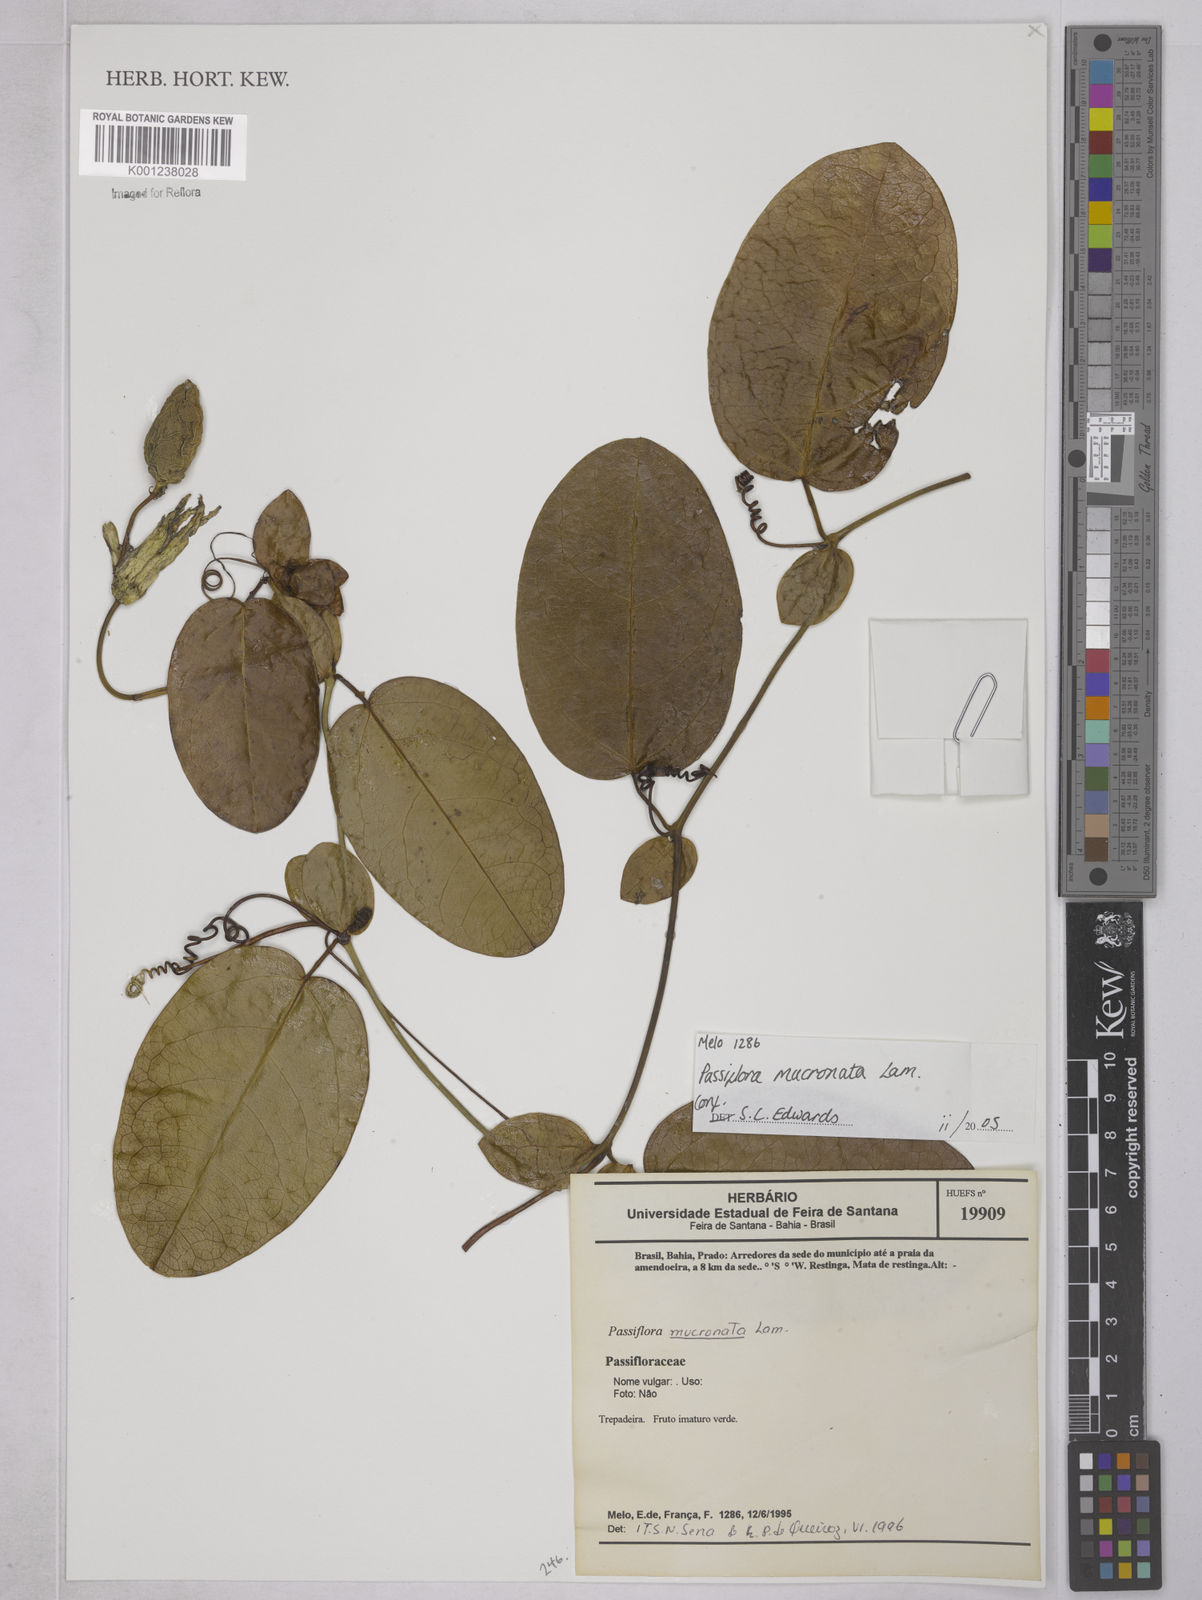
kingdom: Plantae
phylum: Tracheophyta
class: Magnoliopsida
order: Malpighiales
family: Passifloraceae
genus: Passiflora
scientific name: Passiflora mucronata
